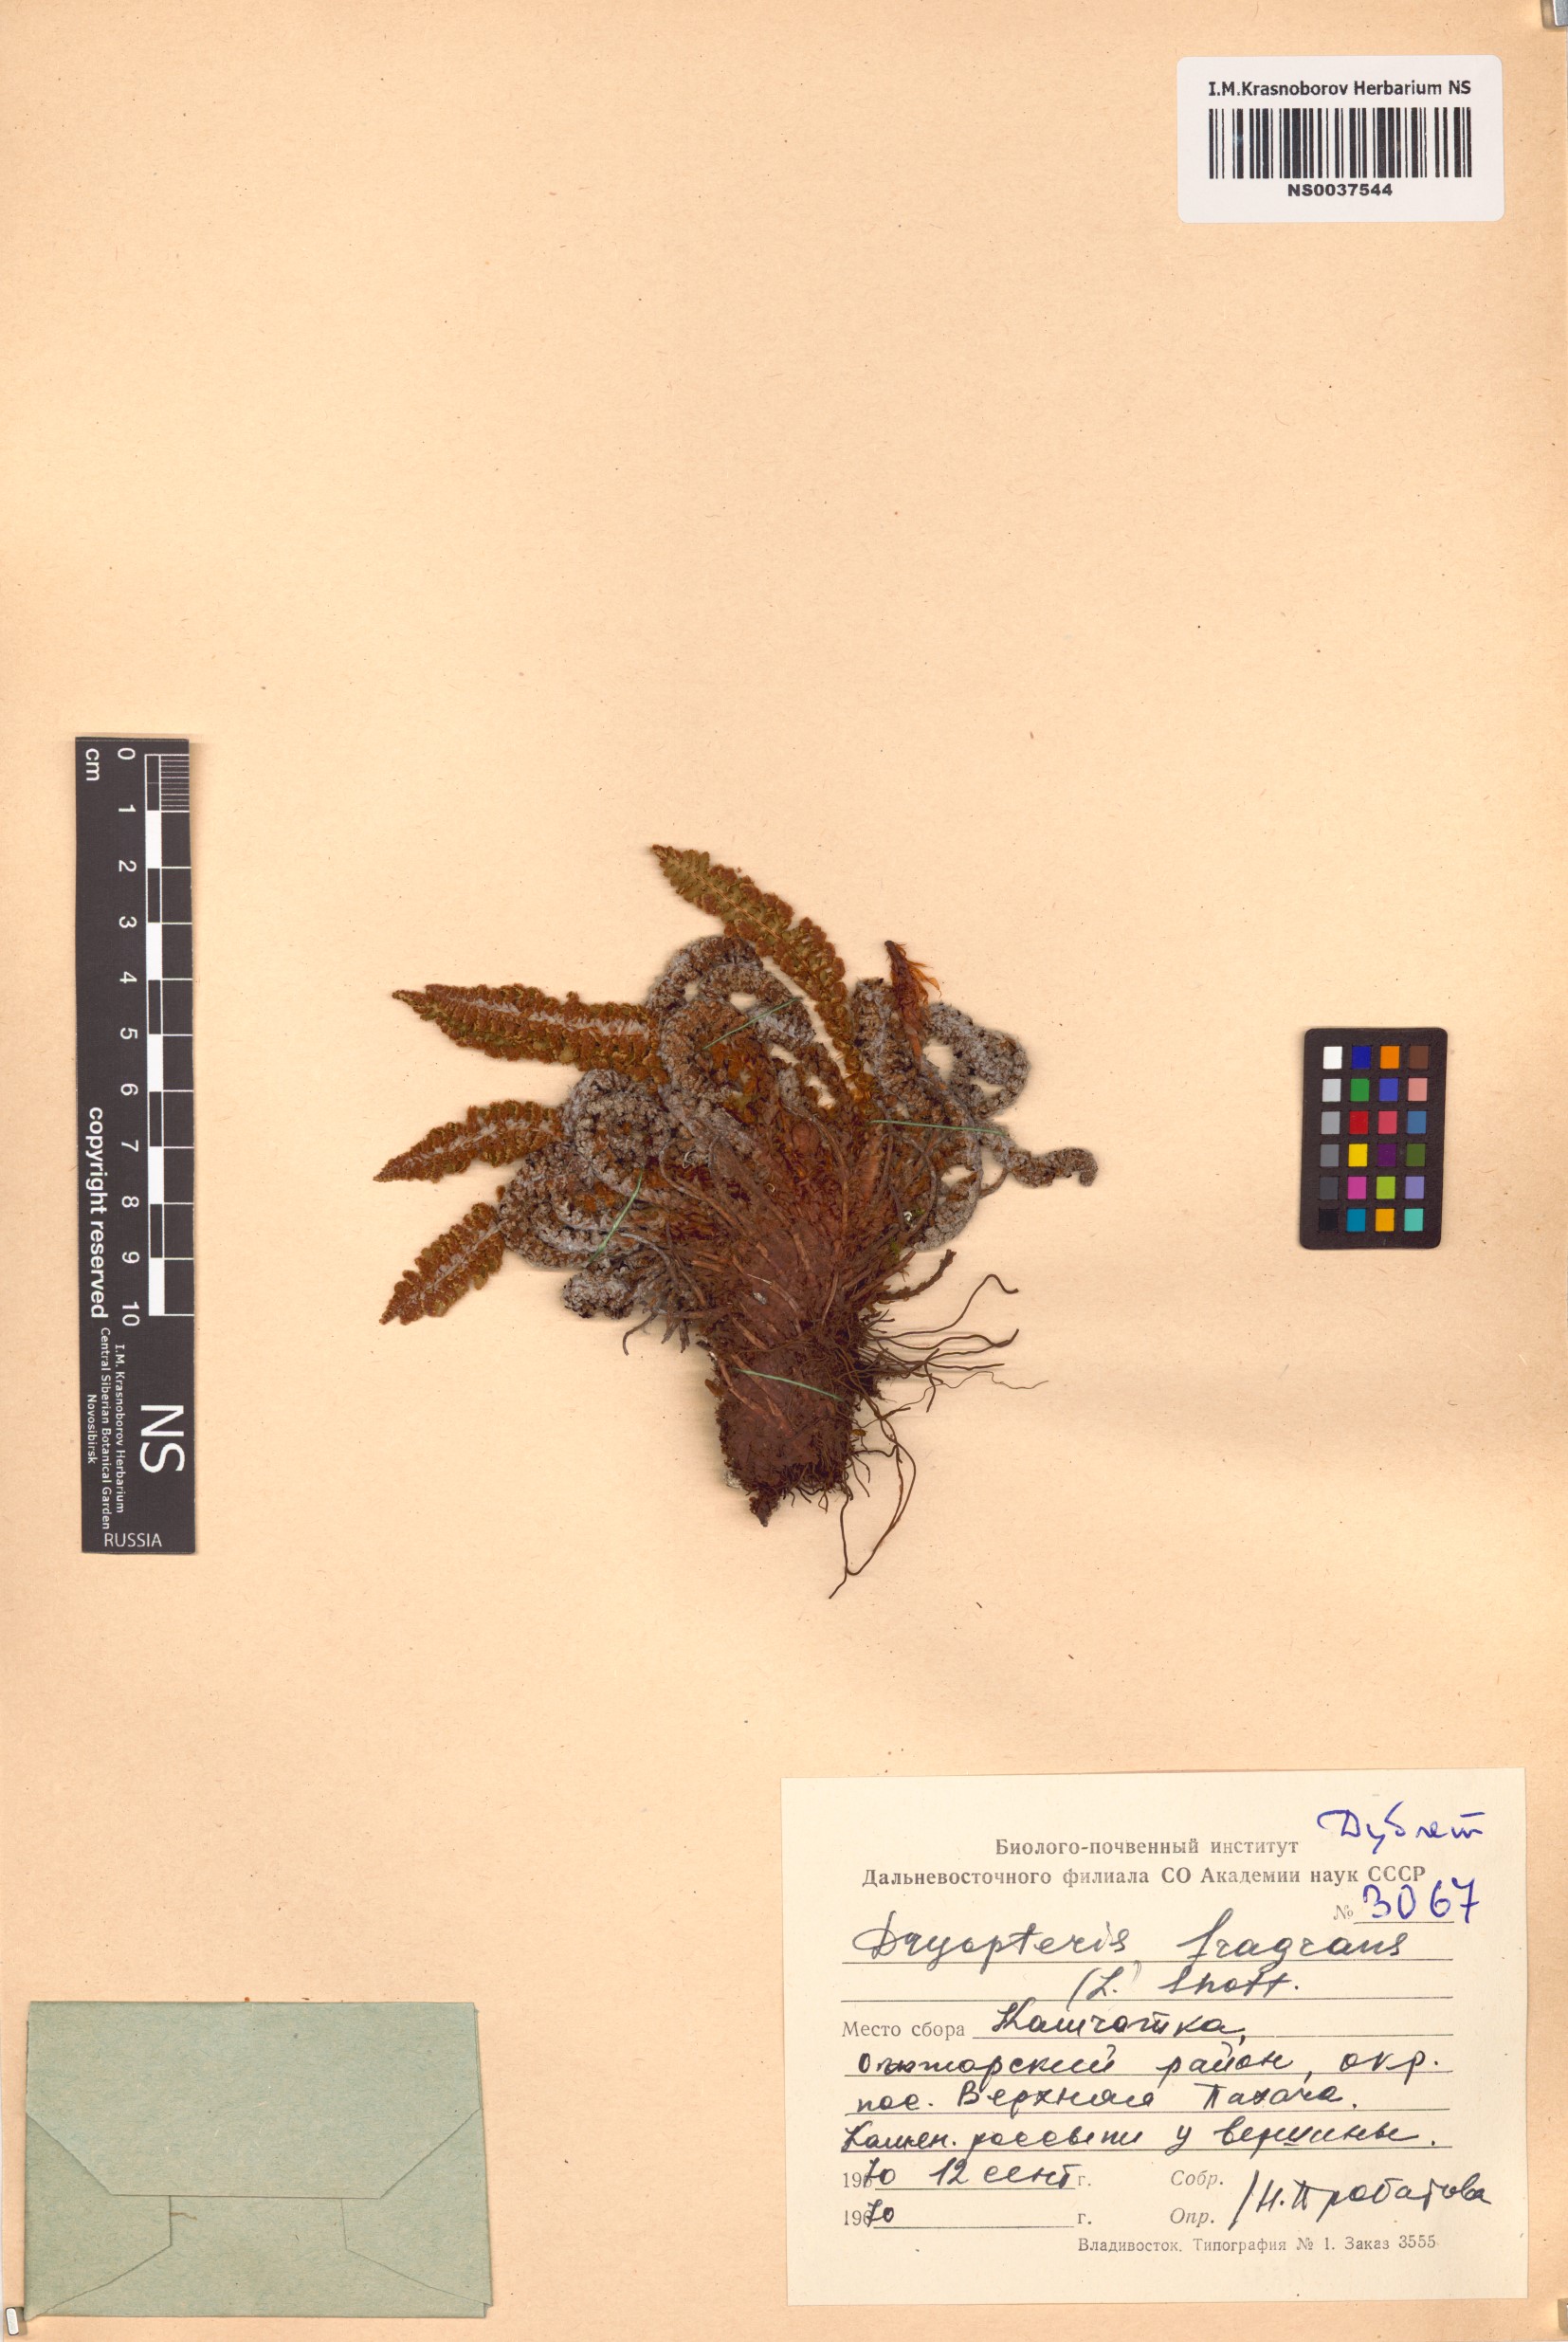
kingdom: Plantae
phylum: Tracheophyta
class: Polypodiopsida
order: Polypodiales
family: Dryopteridaceae
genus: Dryopteris
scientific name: Dryopteris fragrans
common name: Fragrant wood fern
